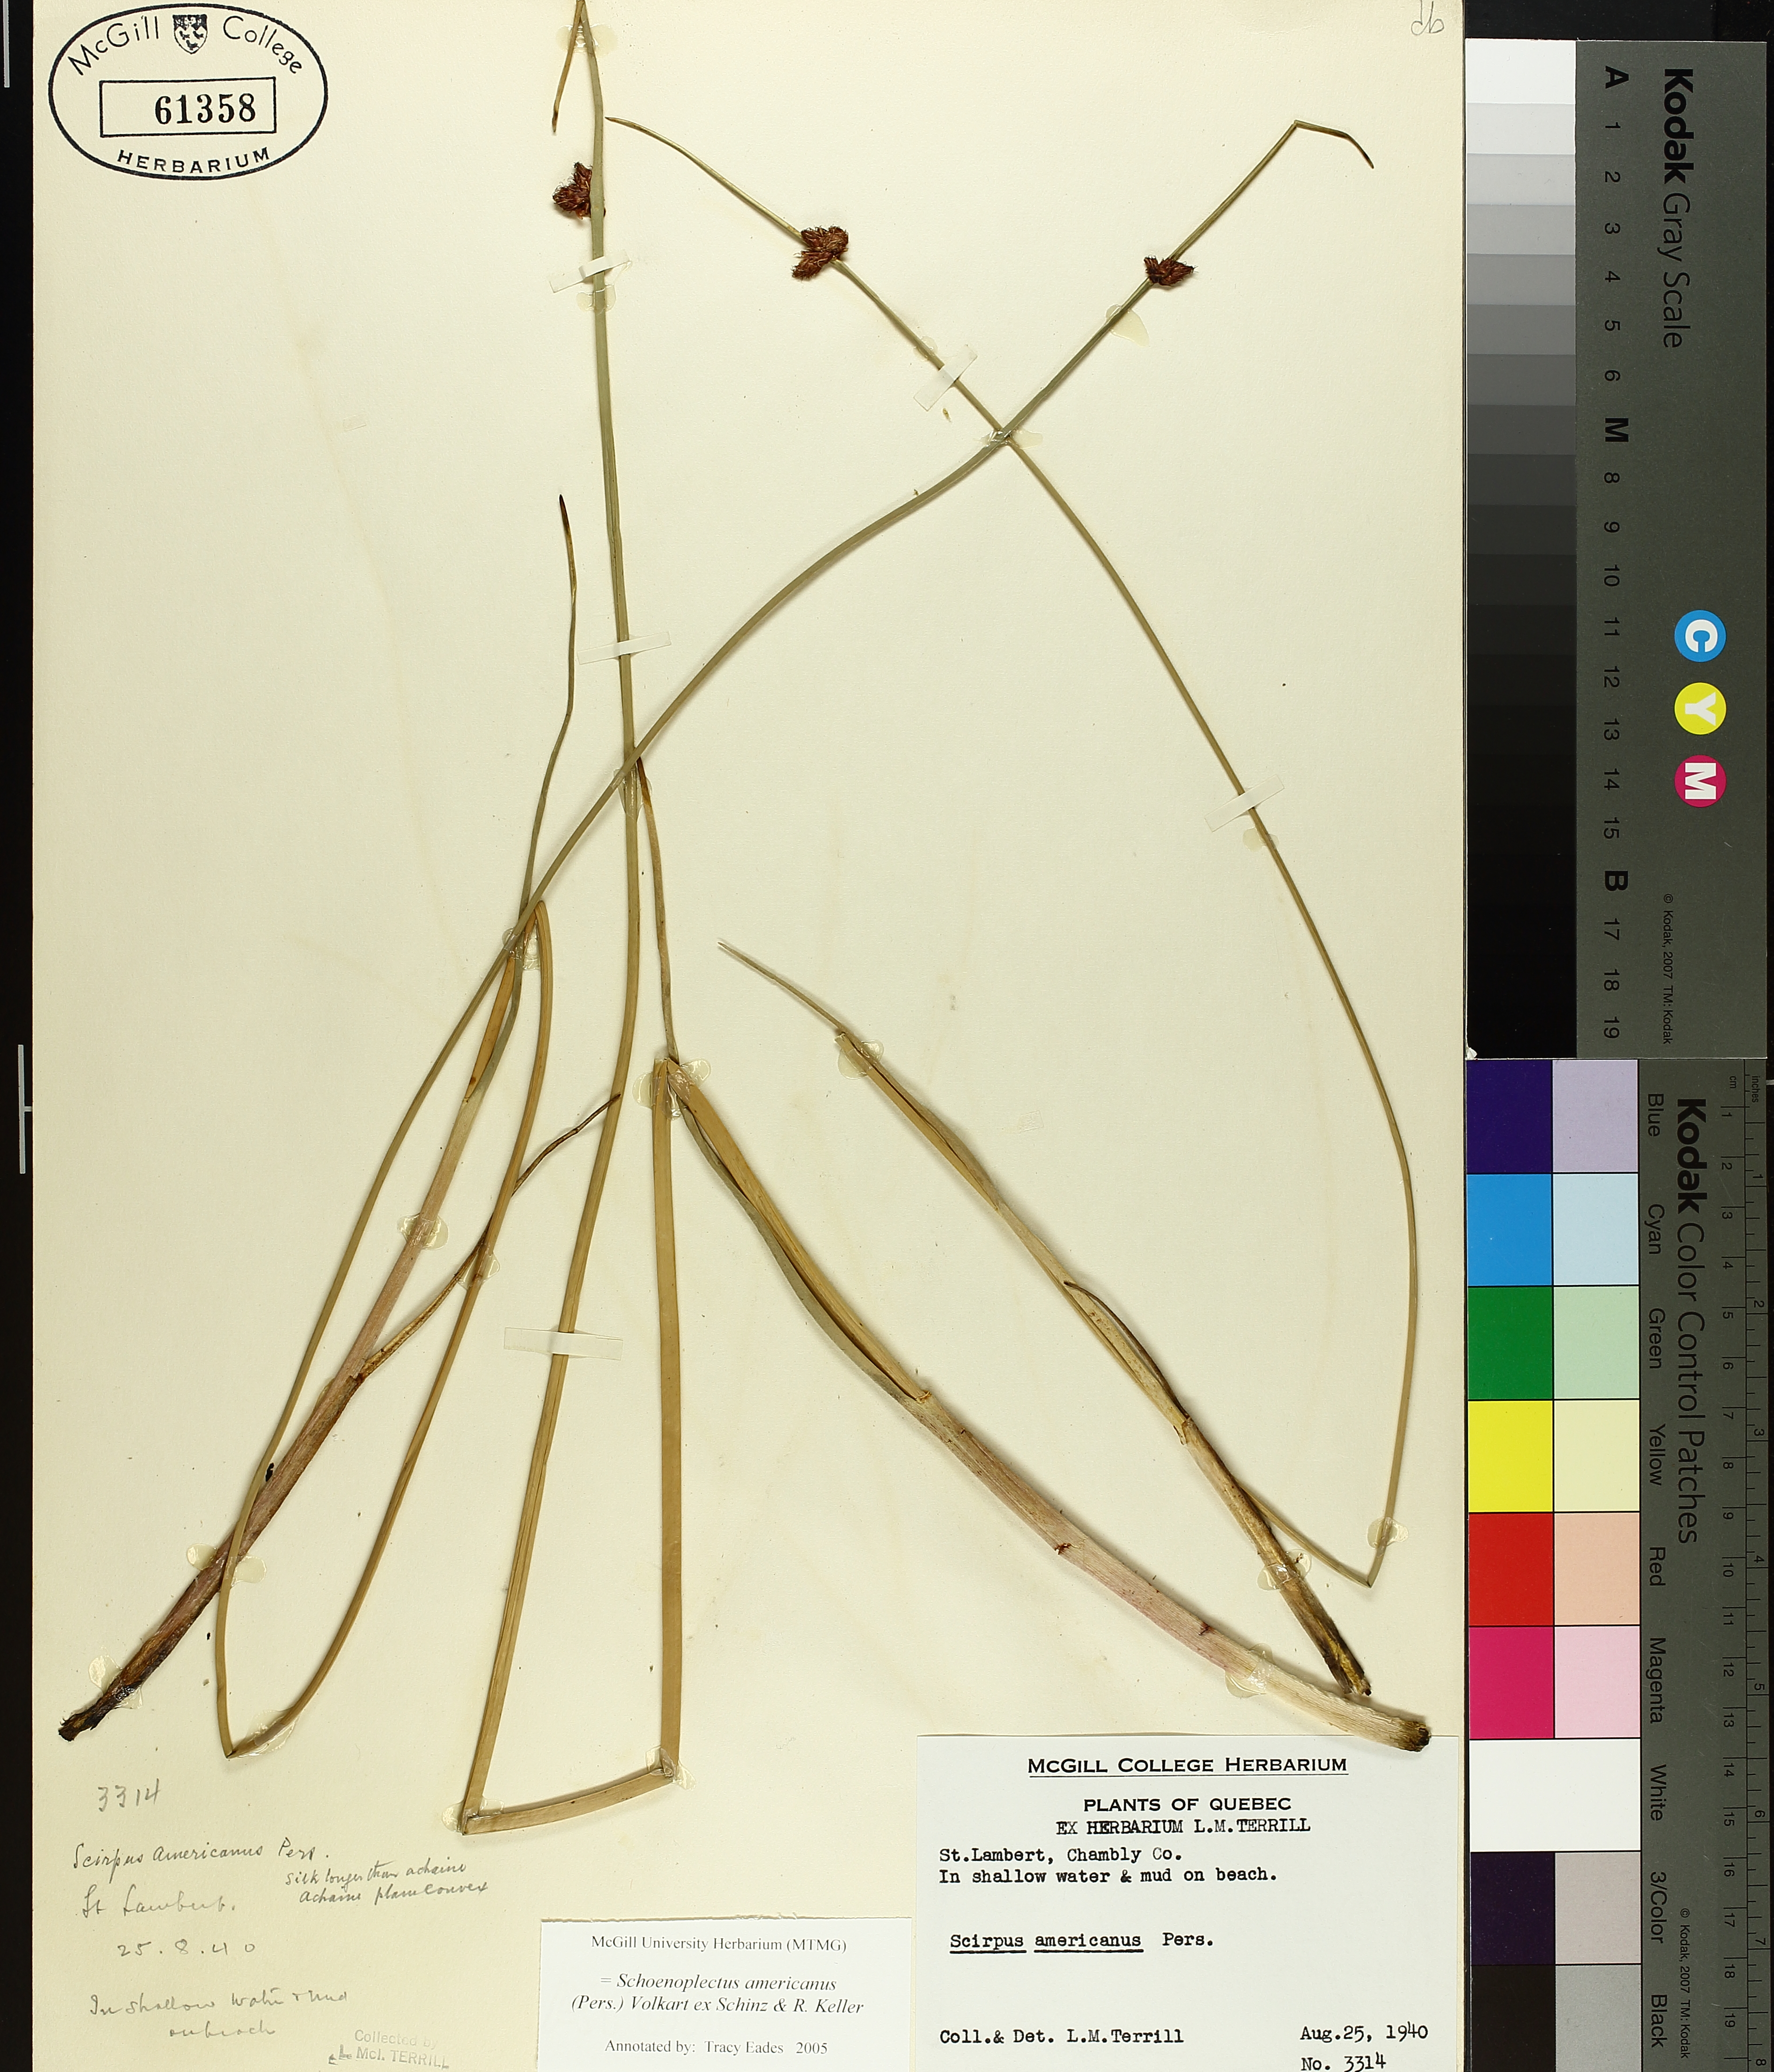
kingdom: Plantae
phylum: Tracheophyta
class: Liliopsida
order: Poales
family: Cyperaceae
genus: Schoenoplectus
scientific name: Schoenoplectus americanus
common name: American three-square bulrush
